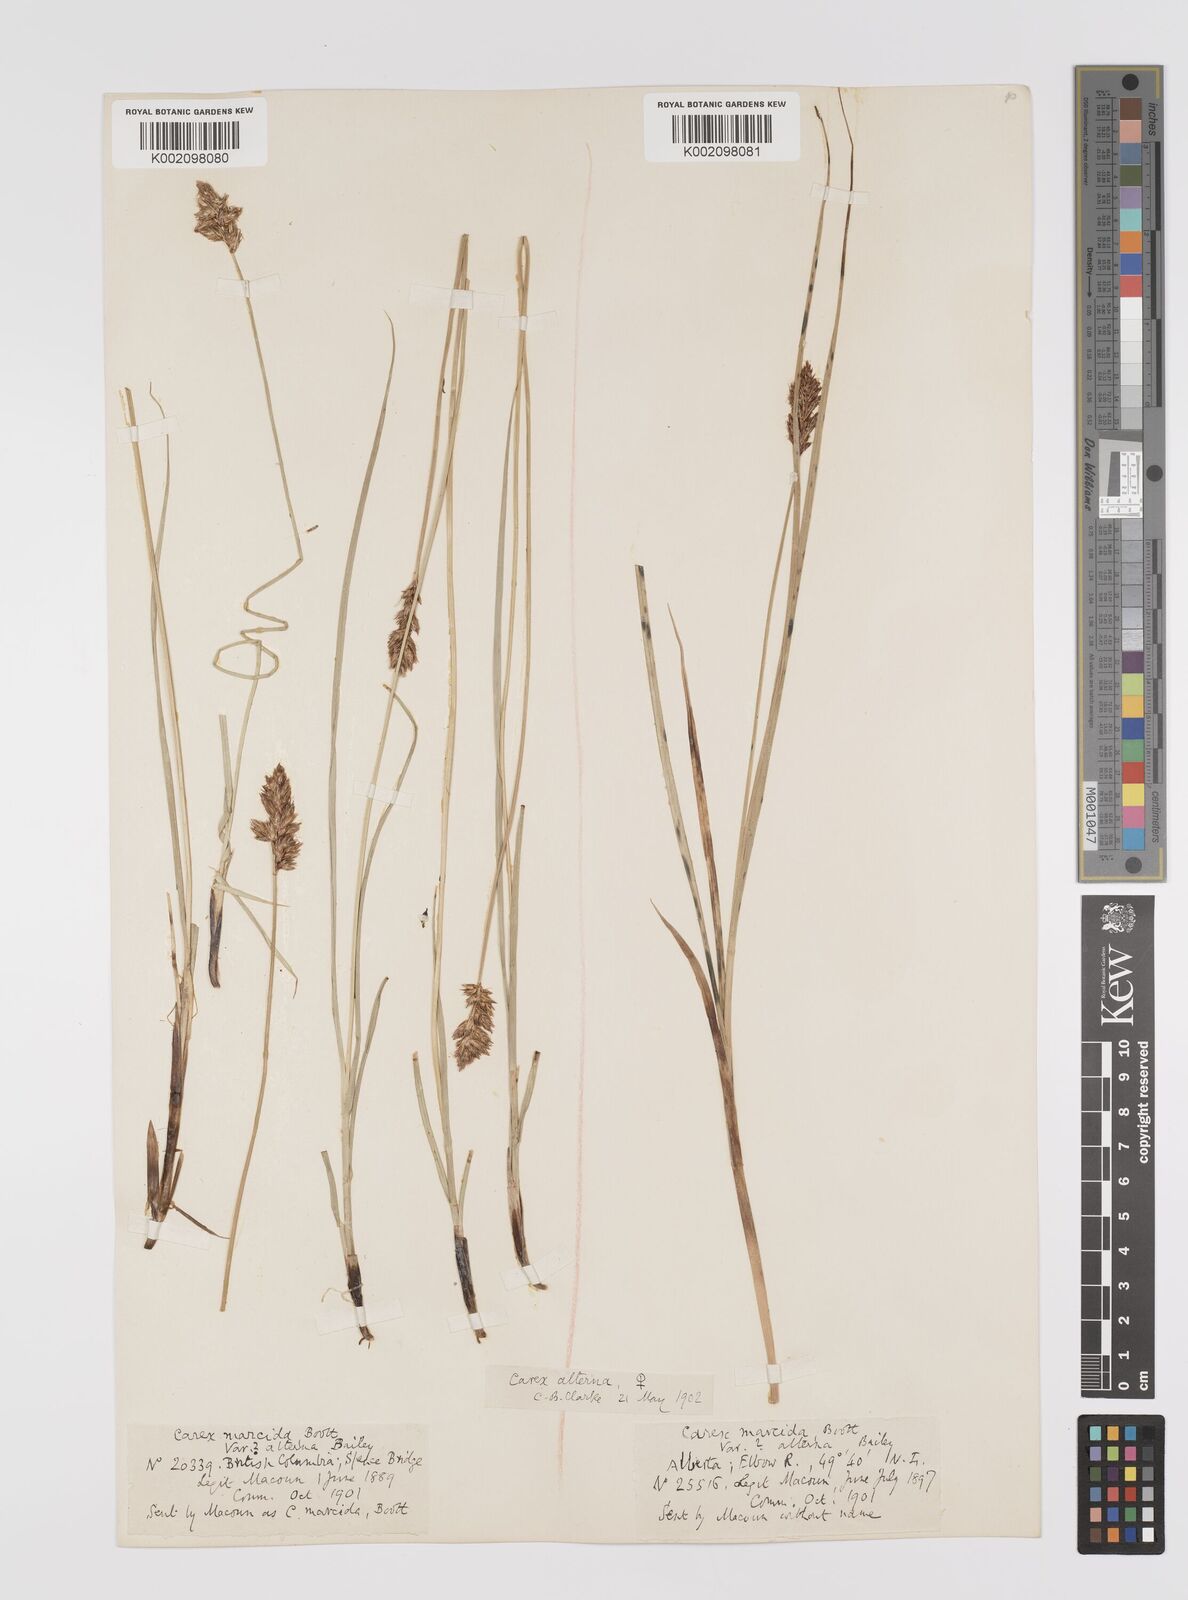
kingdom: Plantae
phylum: Tracheophyta
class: Liliopsida
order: Poales
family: Cyperaceae
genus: Carex
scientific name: Carex praegracilis
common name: Black creeper sedge
